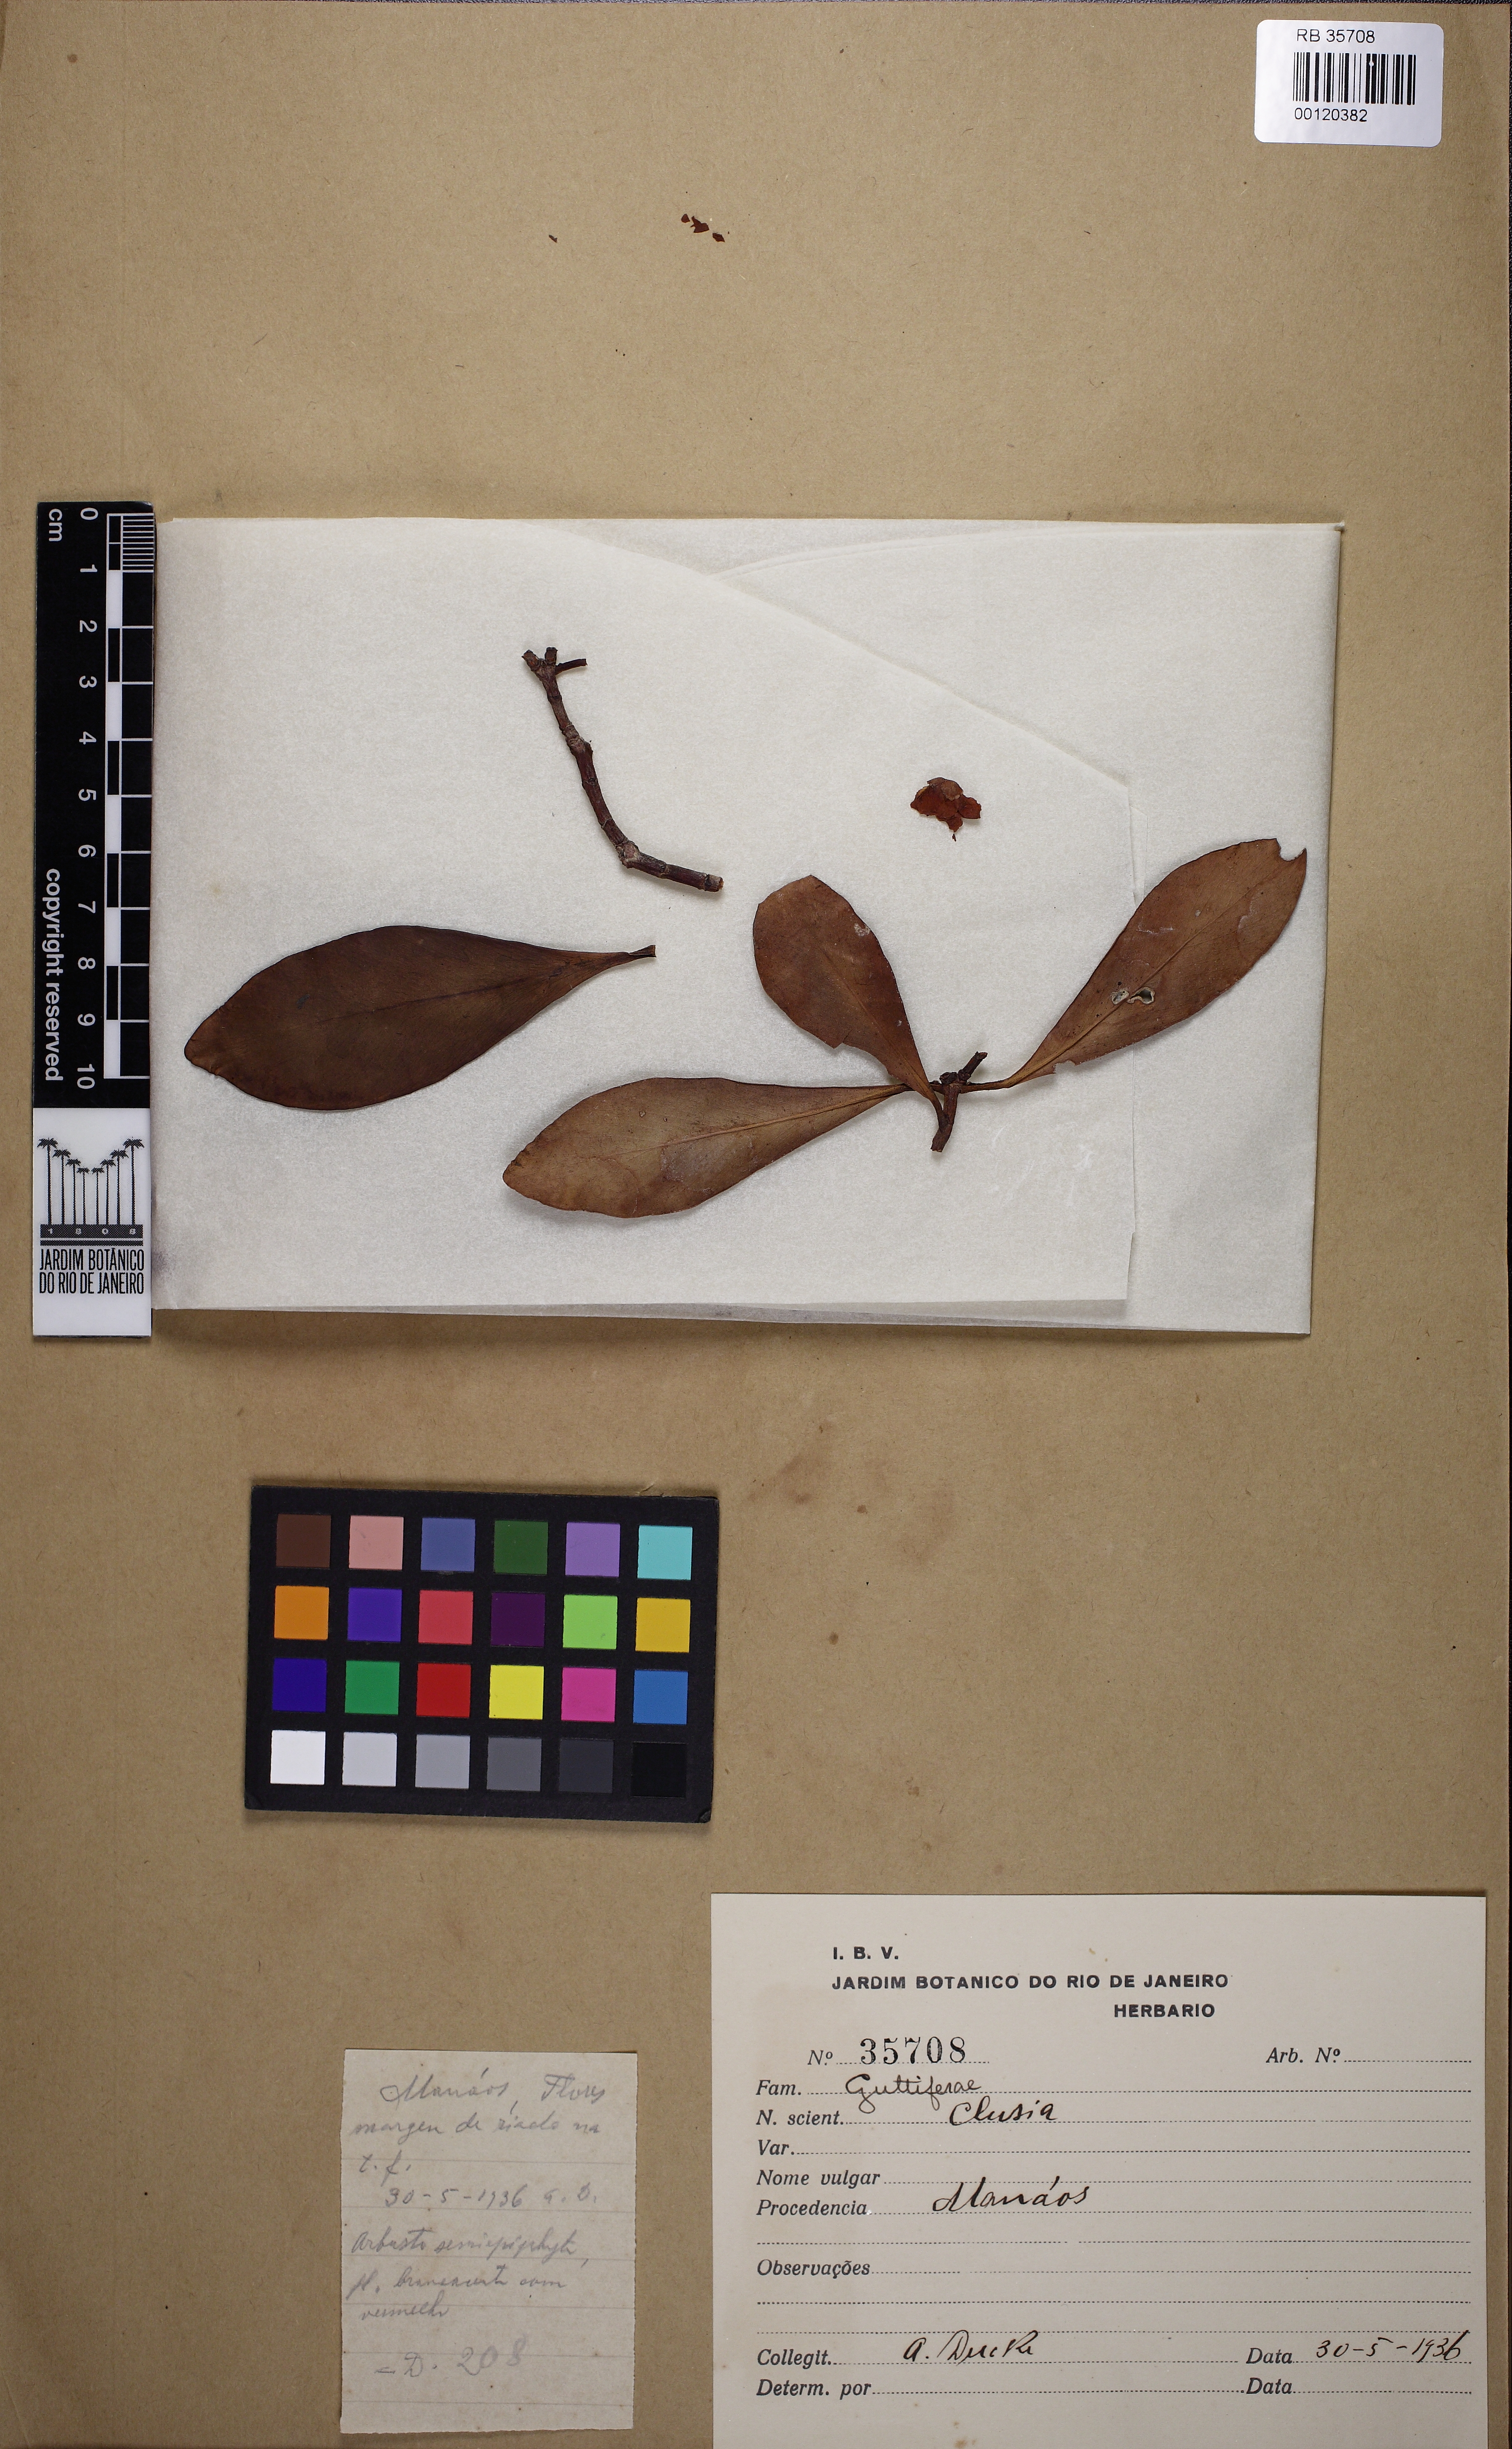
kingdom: Plantae
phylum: Tracheophyta
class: Magnoliopsida
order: Malpighiales
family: Clusiaceae
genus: Clusia
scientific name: Clusia panapanari
